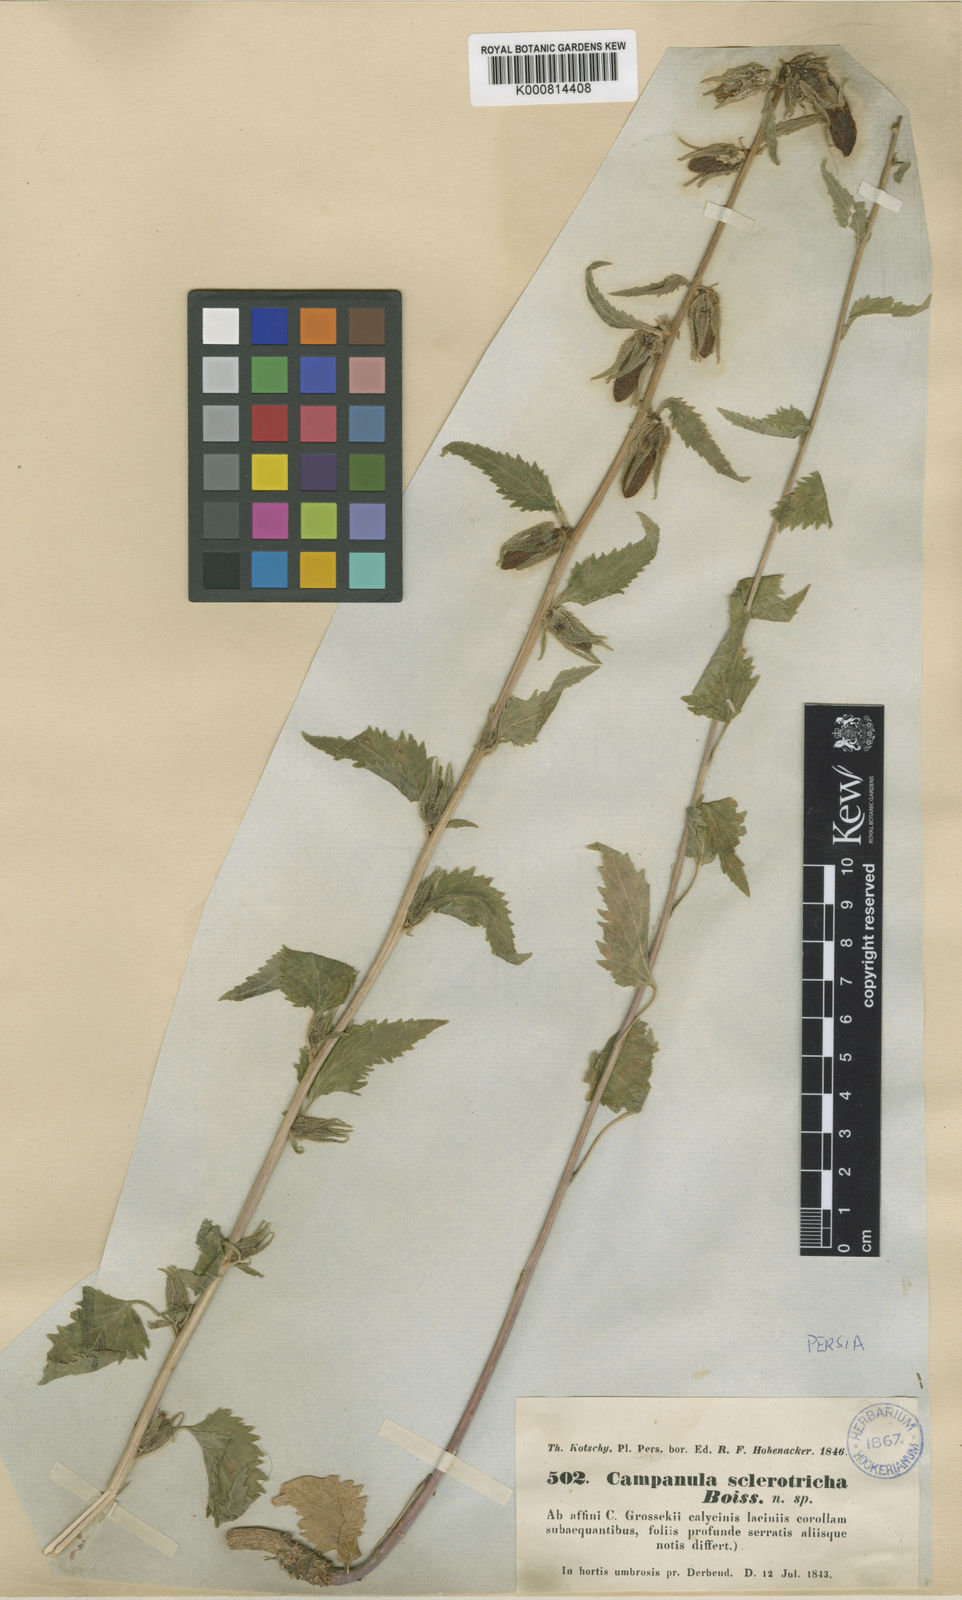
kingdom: Plantae
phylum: Tracheophyta
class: Magnoliopsida
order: Asterales
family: Campanulaceae
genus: Campanula
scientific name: Campanula sclerotricha
